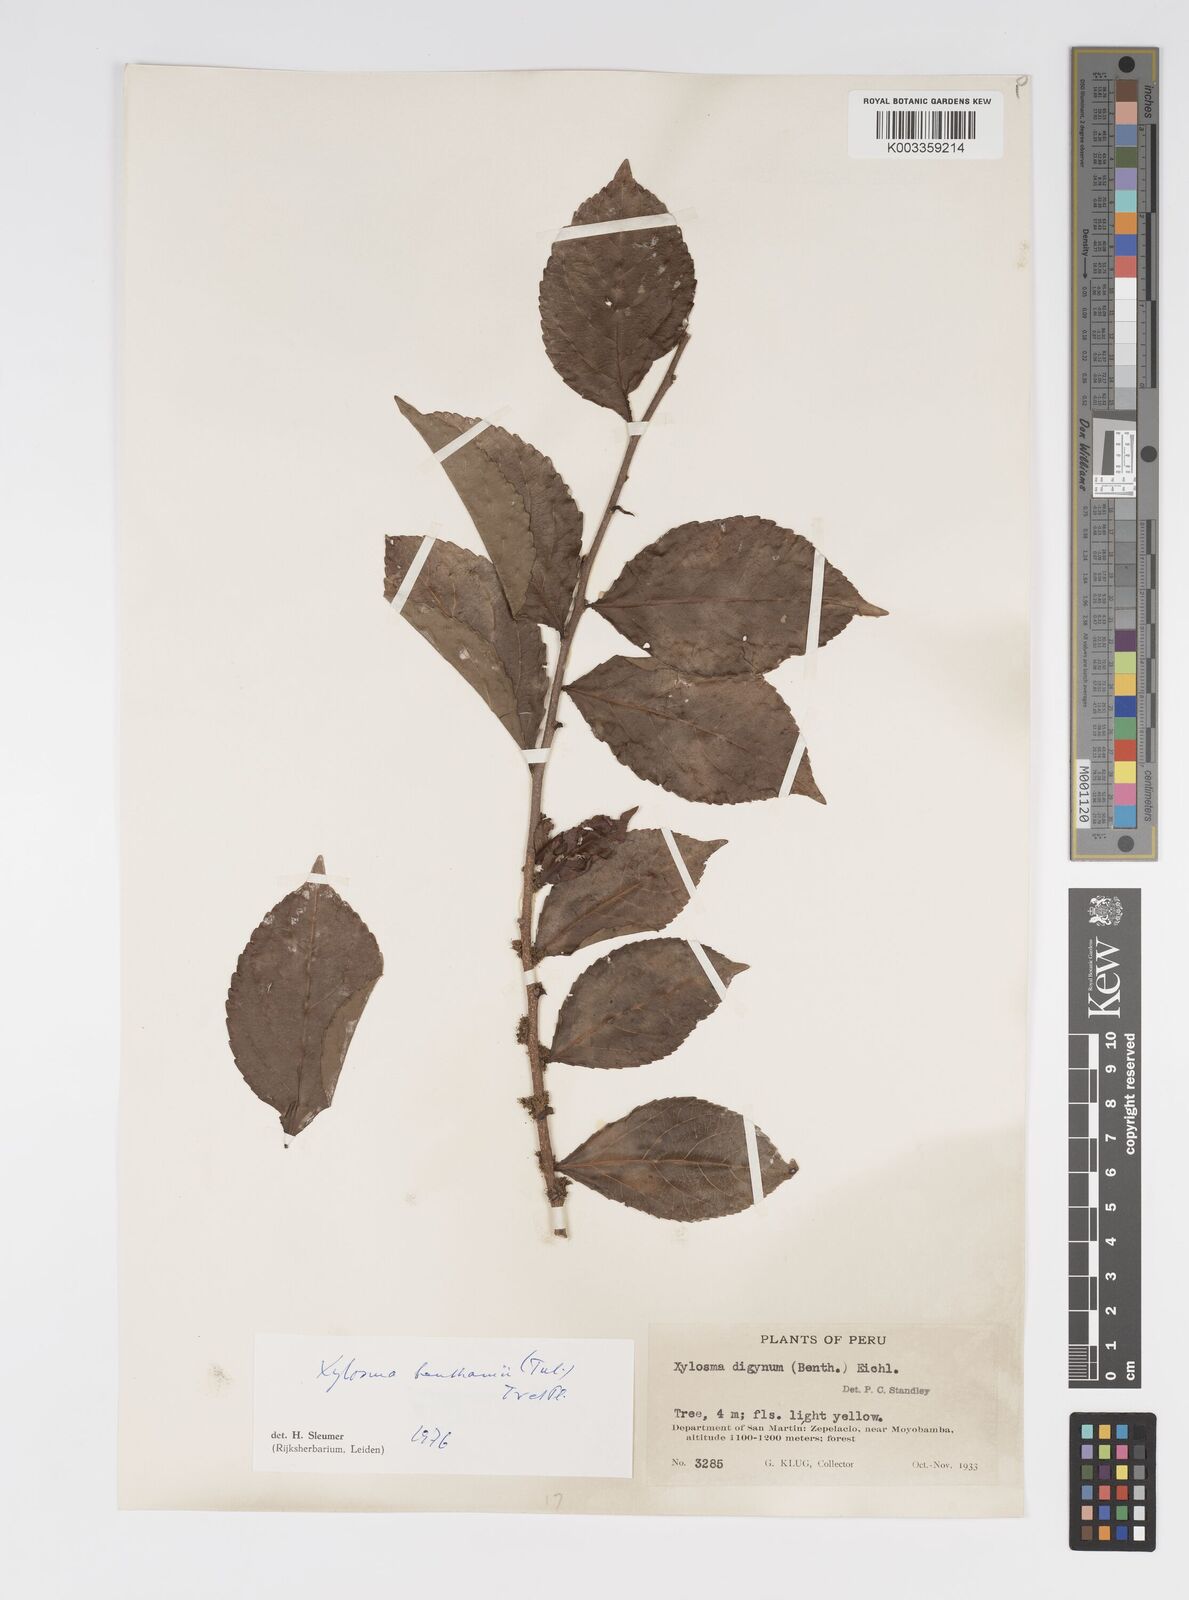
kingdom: Plantae
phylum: Tracheophyta
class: Magnoliopsida
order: Malpighiales
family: Salicaceae
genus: Xylosma
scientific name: Xylosma benthamii
